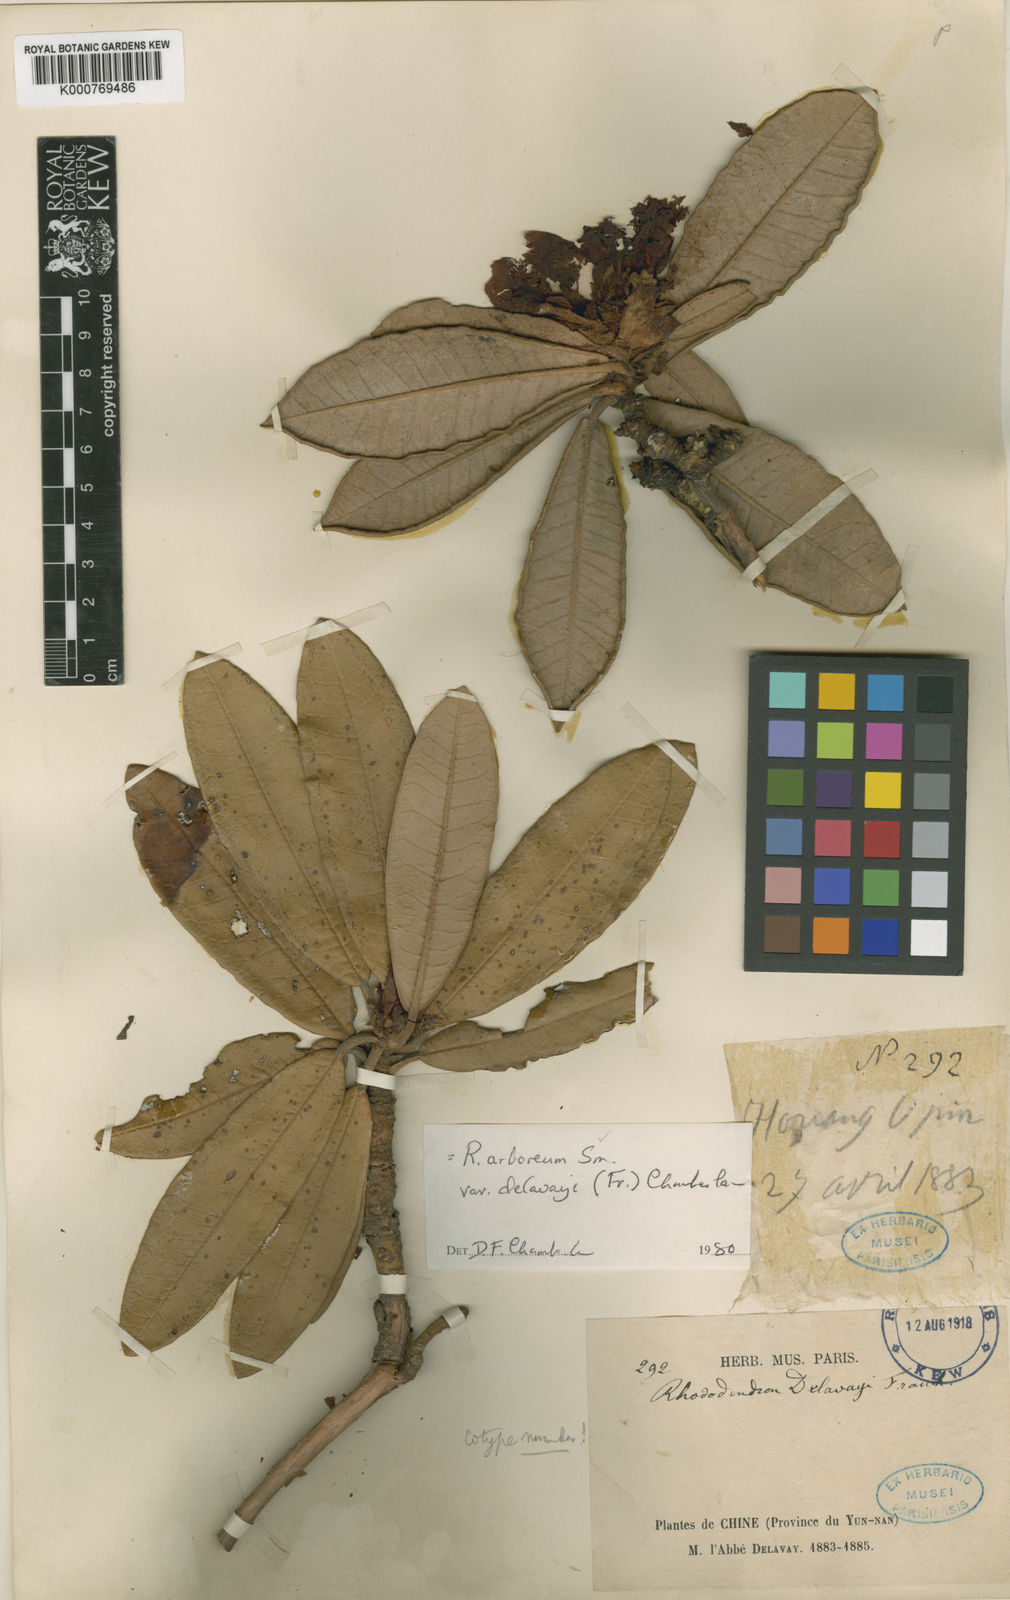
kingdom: Plantae
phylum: Tracheophyta
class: Magnoliopsida
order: Ericales
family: Ericaceae
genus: Rhododendron
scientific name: Rhododendron delavayi
